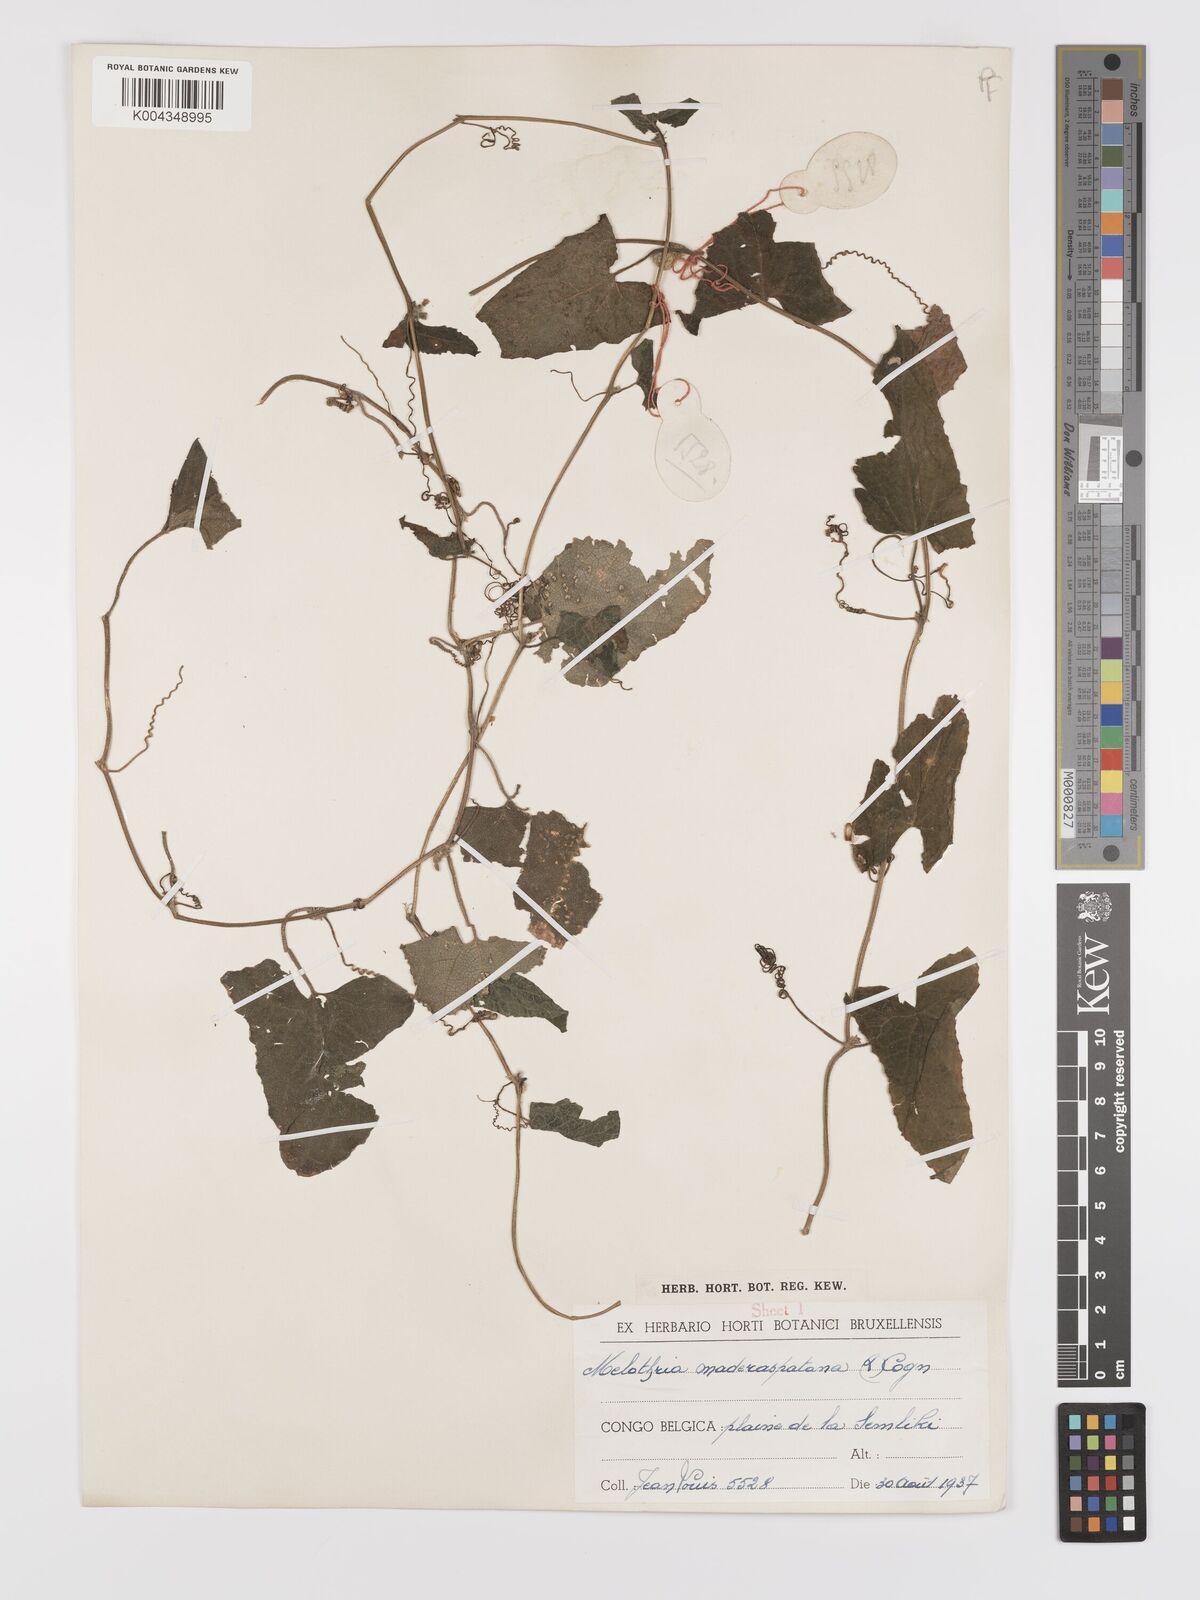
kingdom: Plantae
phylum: Tracheophyta
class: Magnoliopsida
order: Cucurbitales
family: Cucurbitaceae
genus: Cucumis
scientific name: Cucumis maderaspatanus
